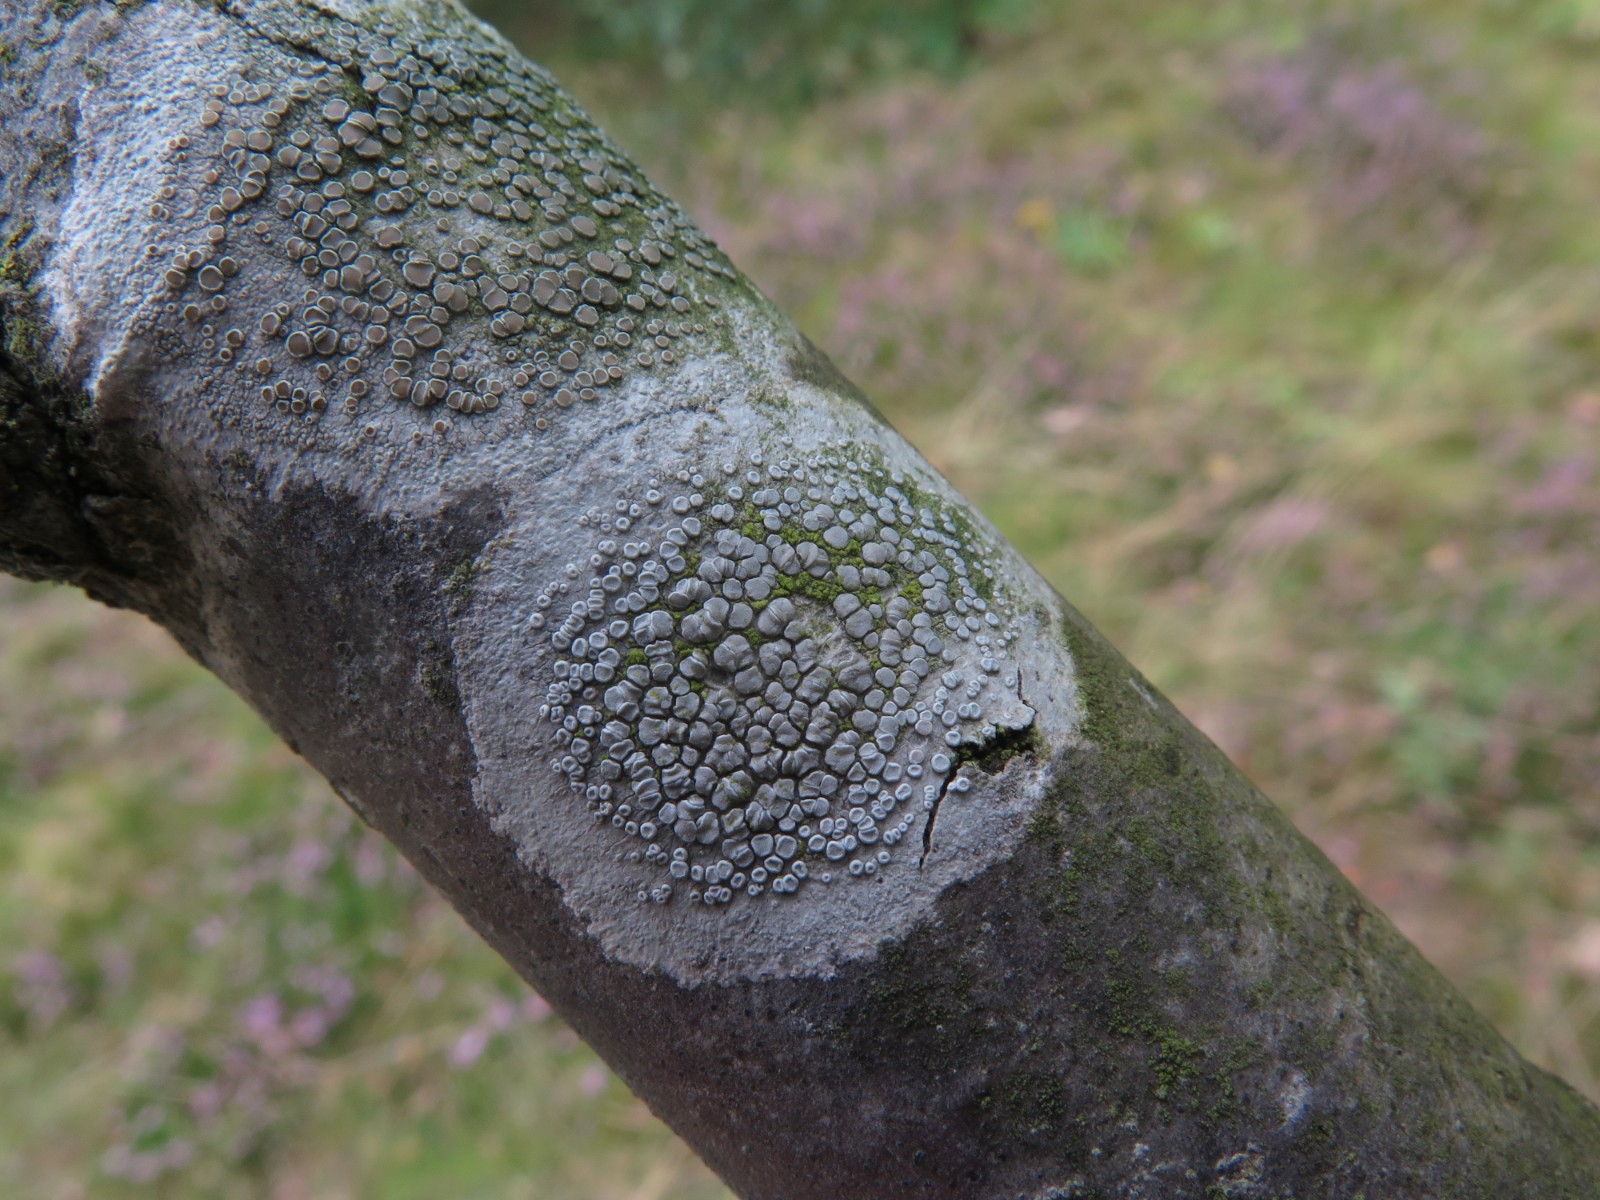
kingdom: Fungi
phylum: Ascomycota
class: Lecanoromycetes
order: Lecanorales
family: Lecanoraceae
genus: Lecanora
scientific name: Lecanora chlarotera
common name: brun kantskivelav
